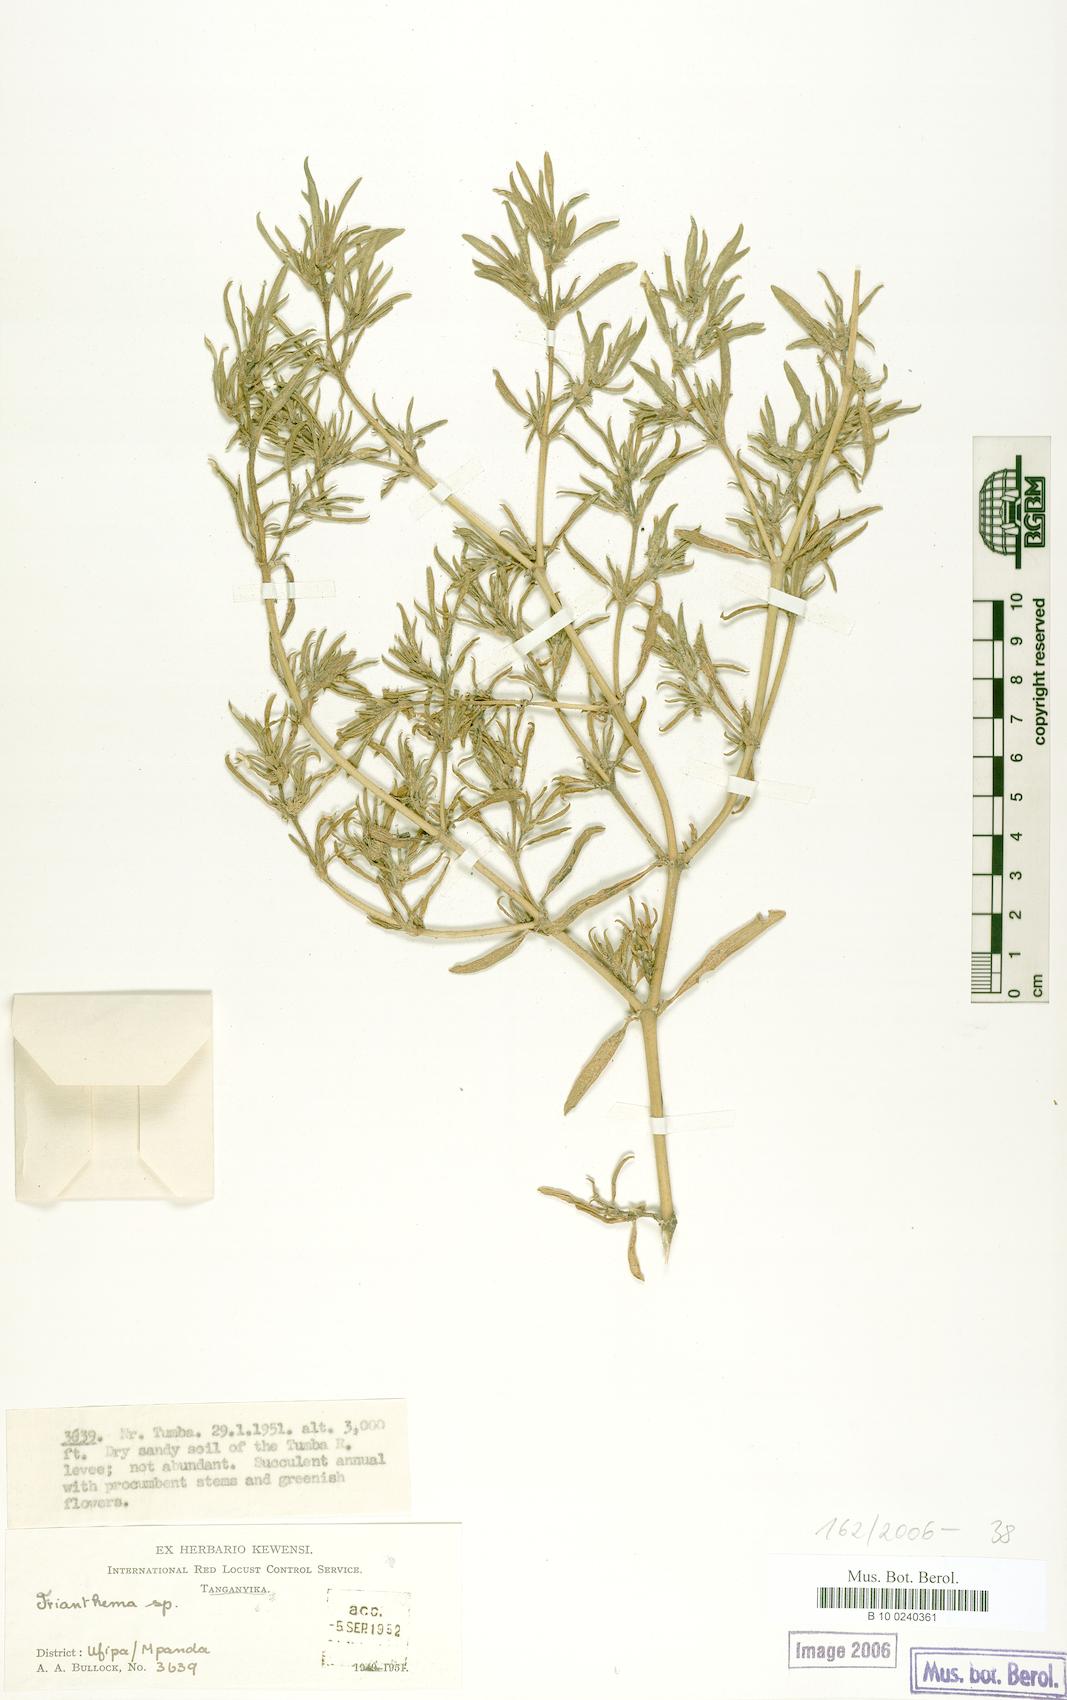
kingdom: Plantae
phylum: Tracheophyta
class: Magnoliopsida
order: Caryophyllales
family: Aizoaceae
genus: Trianthema
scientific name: Trianthema
